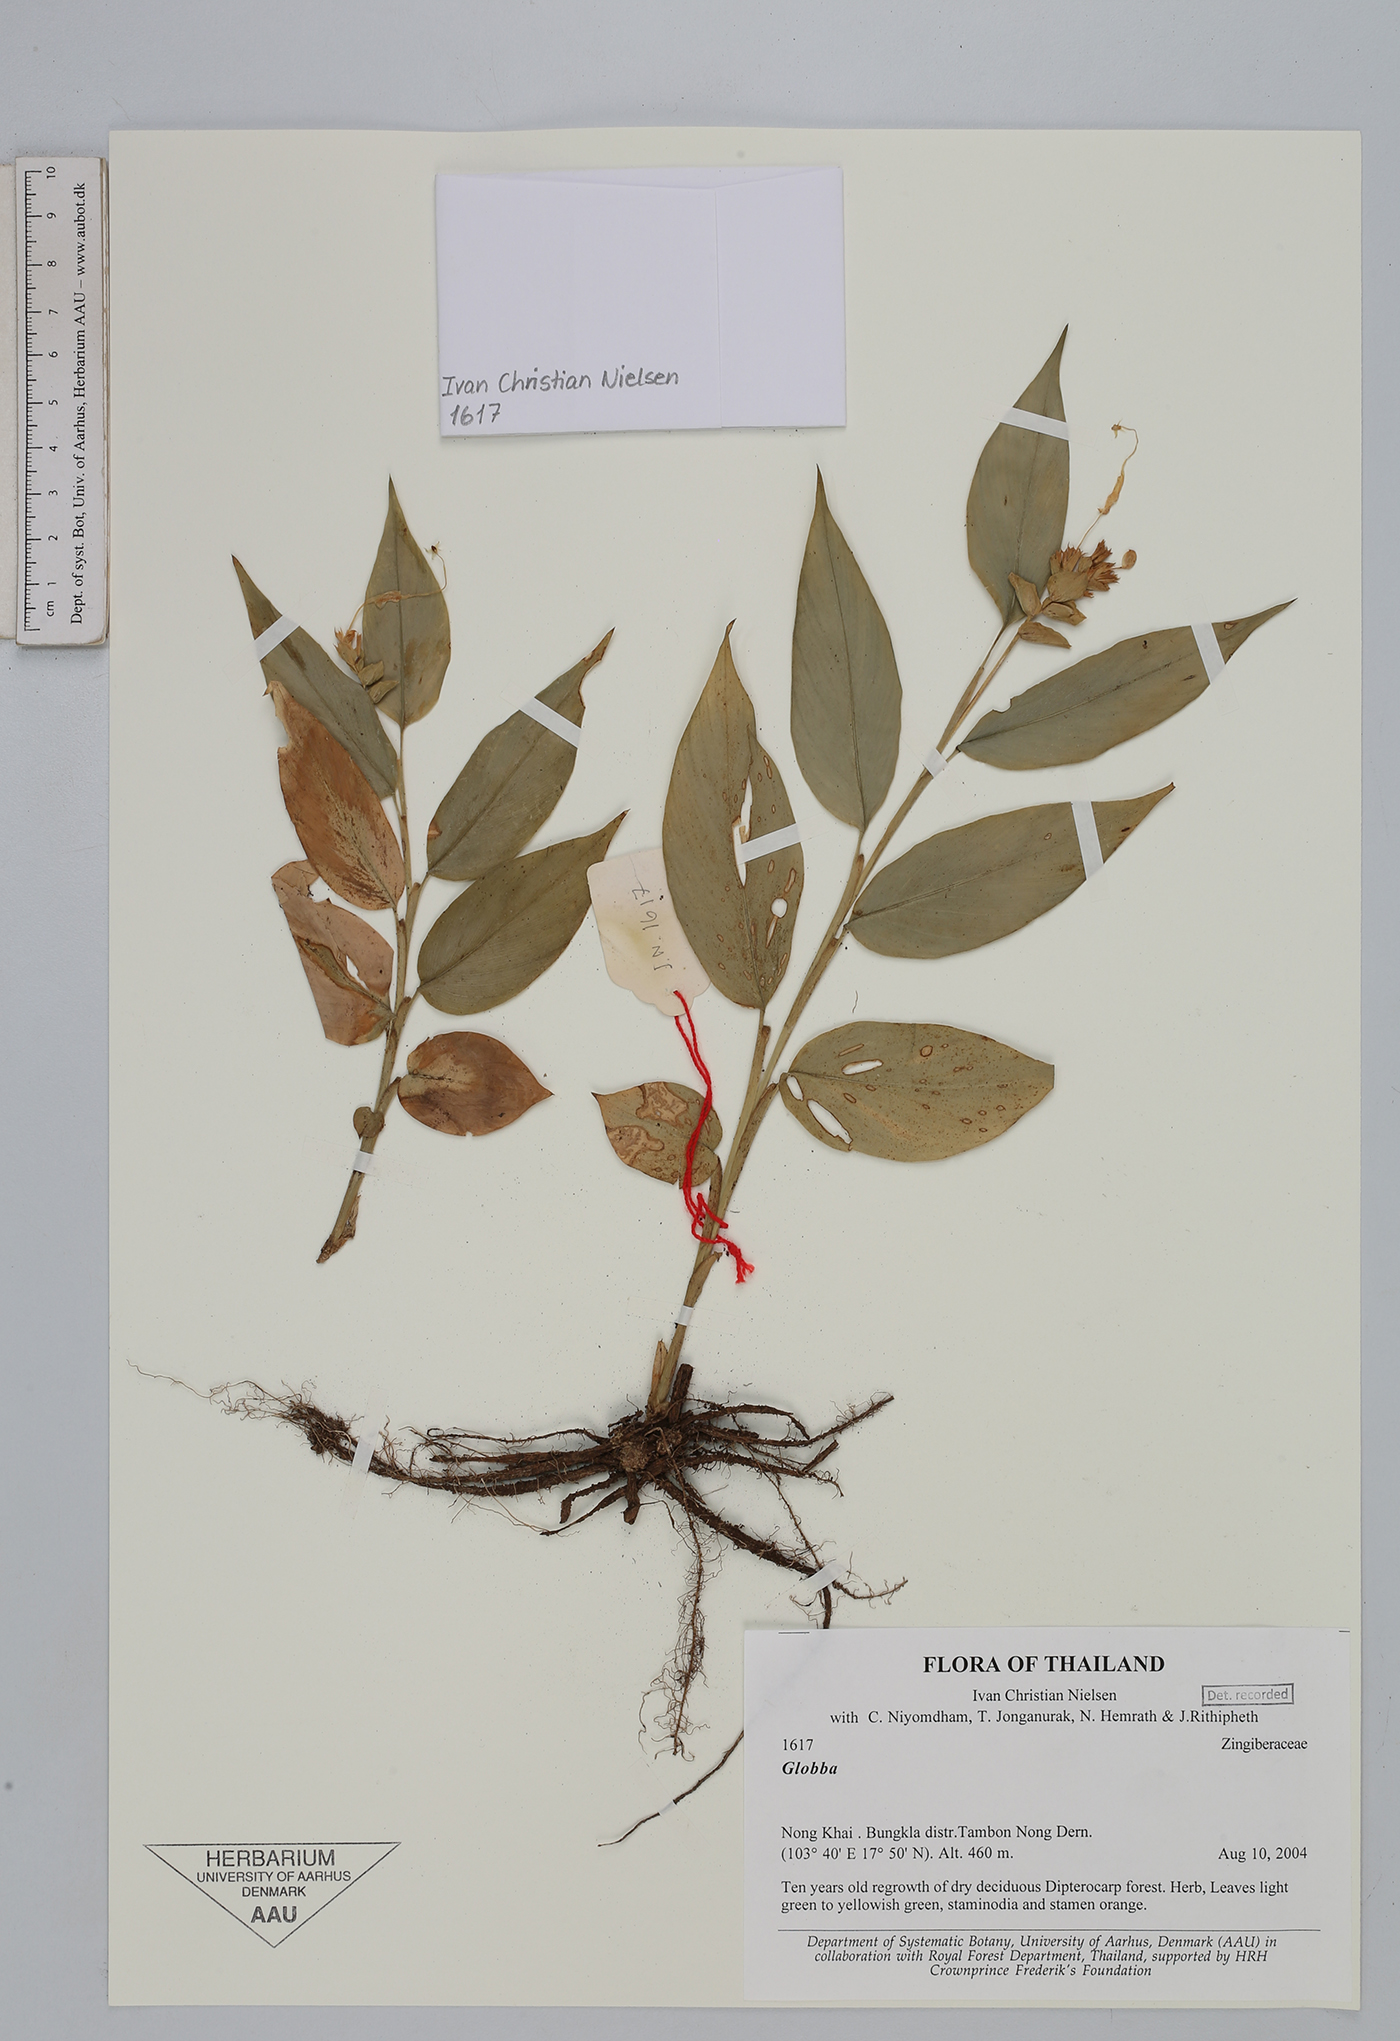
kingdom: Plantae
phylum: Tracheophyta
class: Liliopsida
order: Zingiberales
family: Zingiberaceae
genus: Globba
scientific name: Globba
